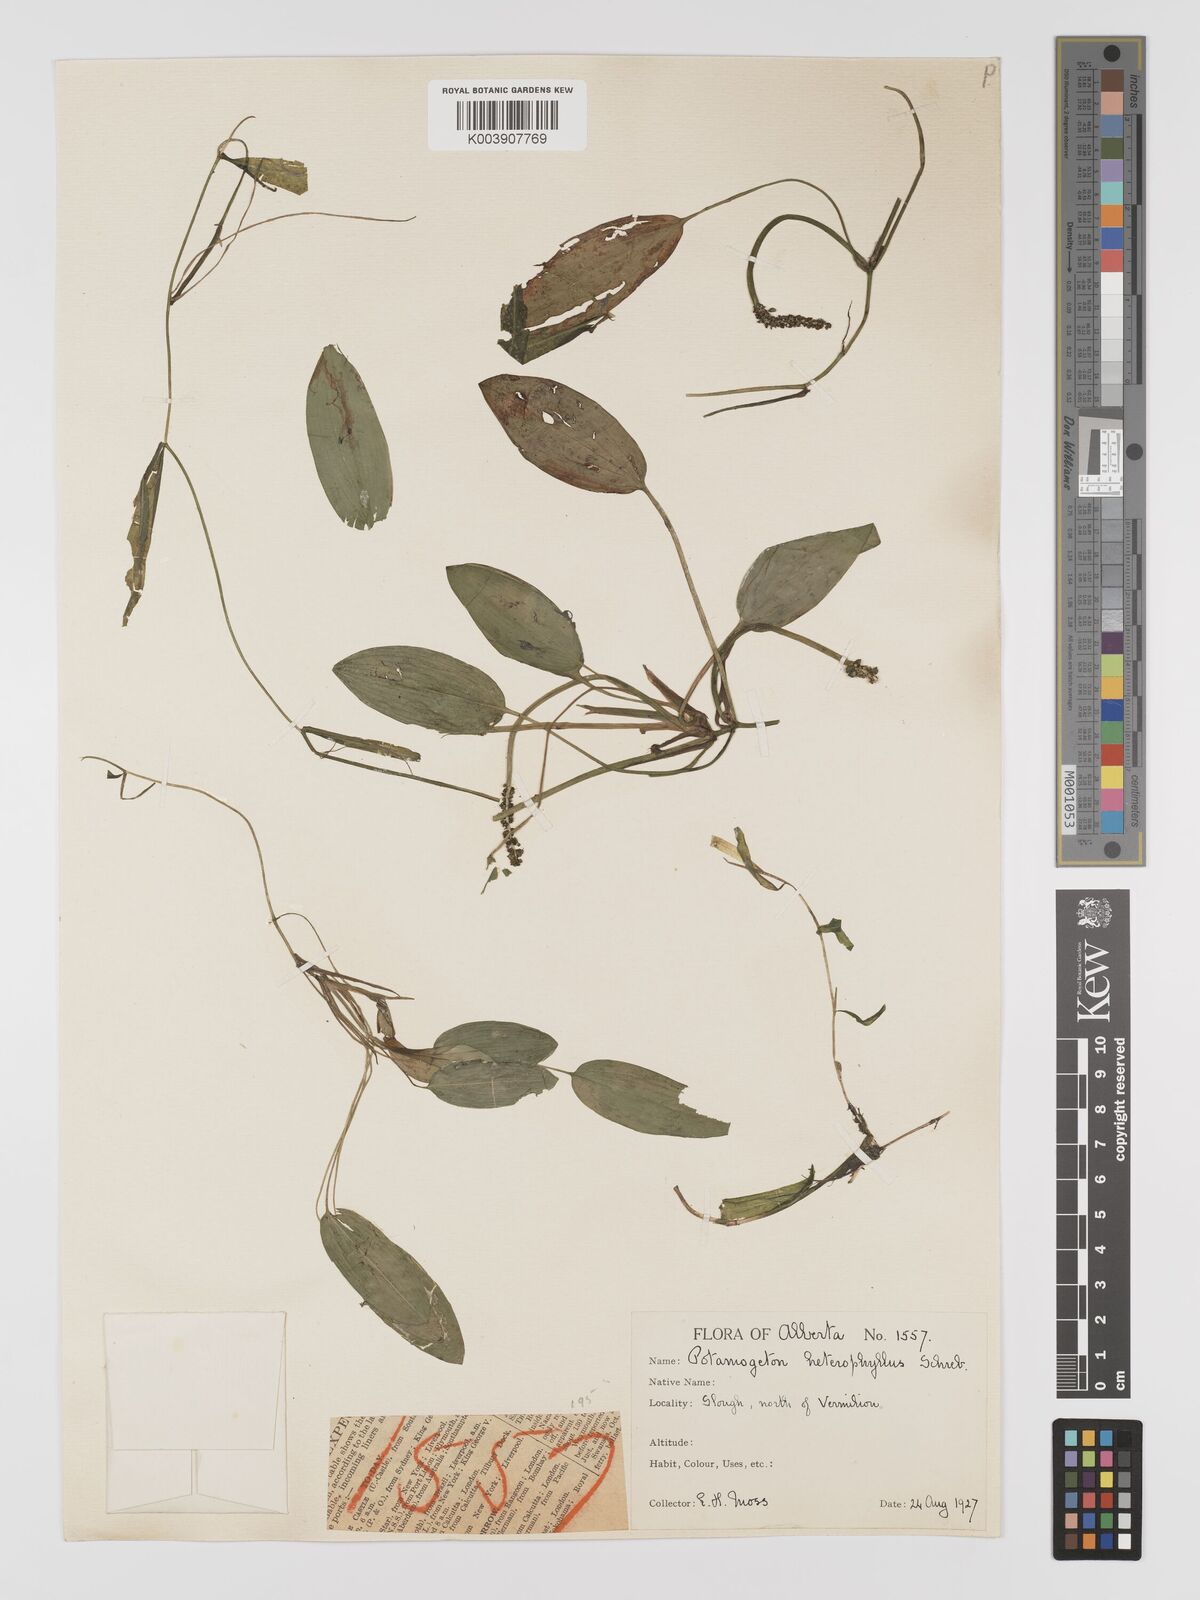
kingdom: Plantae
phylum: Tracheophyta
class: Liliopsida
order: Alismatales
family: Potamogetonaceae
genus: Potamogeton
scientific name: Potamogeton gramineus
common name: Various-leaved pondweed
